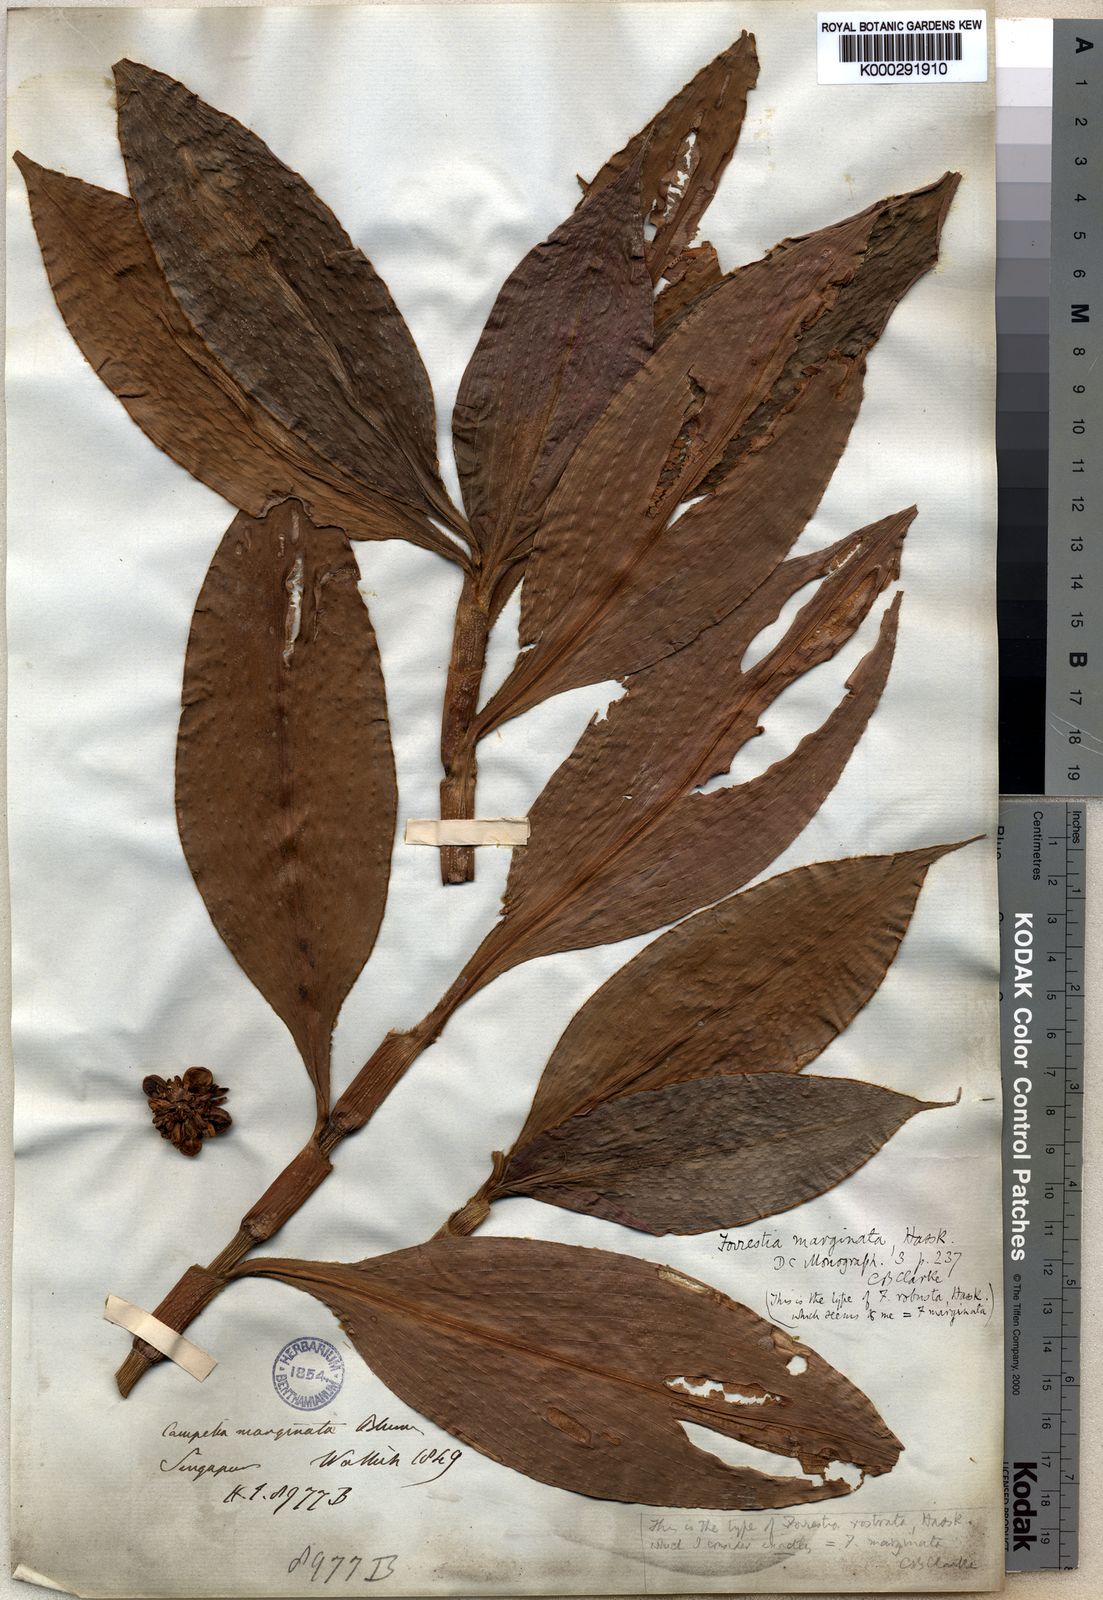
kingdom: Plantae
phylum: Tracheophyta
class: Liliopsida
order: Commelinales
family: Commelinaceae
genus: Amischotolype
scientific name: Amischotolype gracilis
